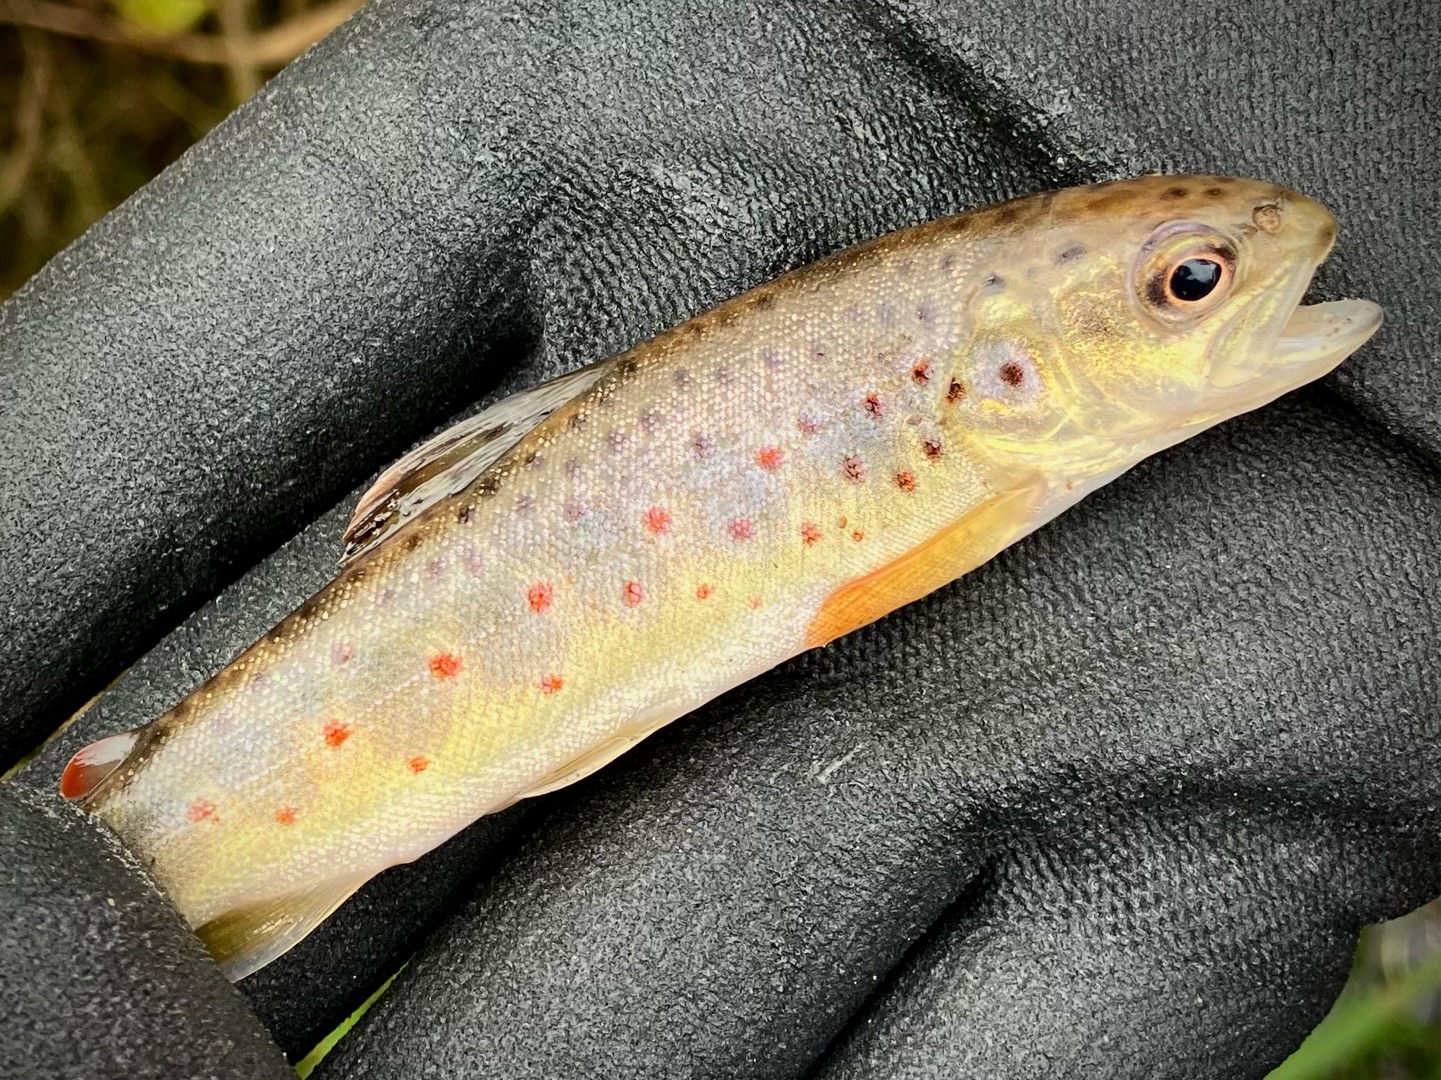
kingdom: Animalia
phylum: Chordata
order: Salmoniformes
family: Salmonidae
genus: Salmo
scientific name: Salmo trutta
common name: Ørred
